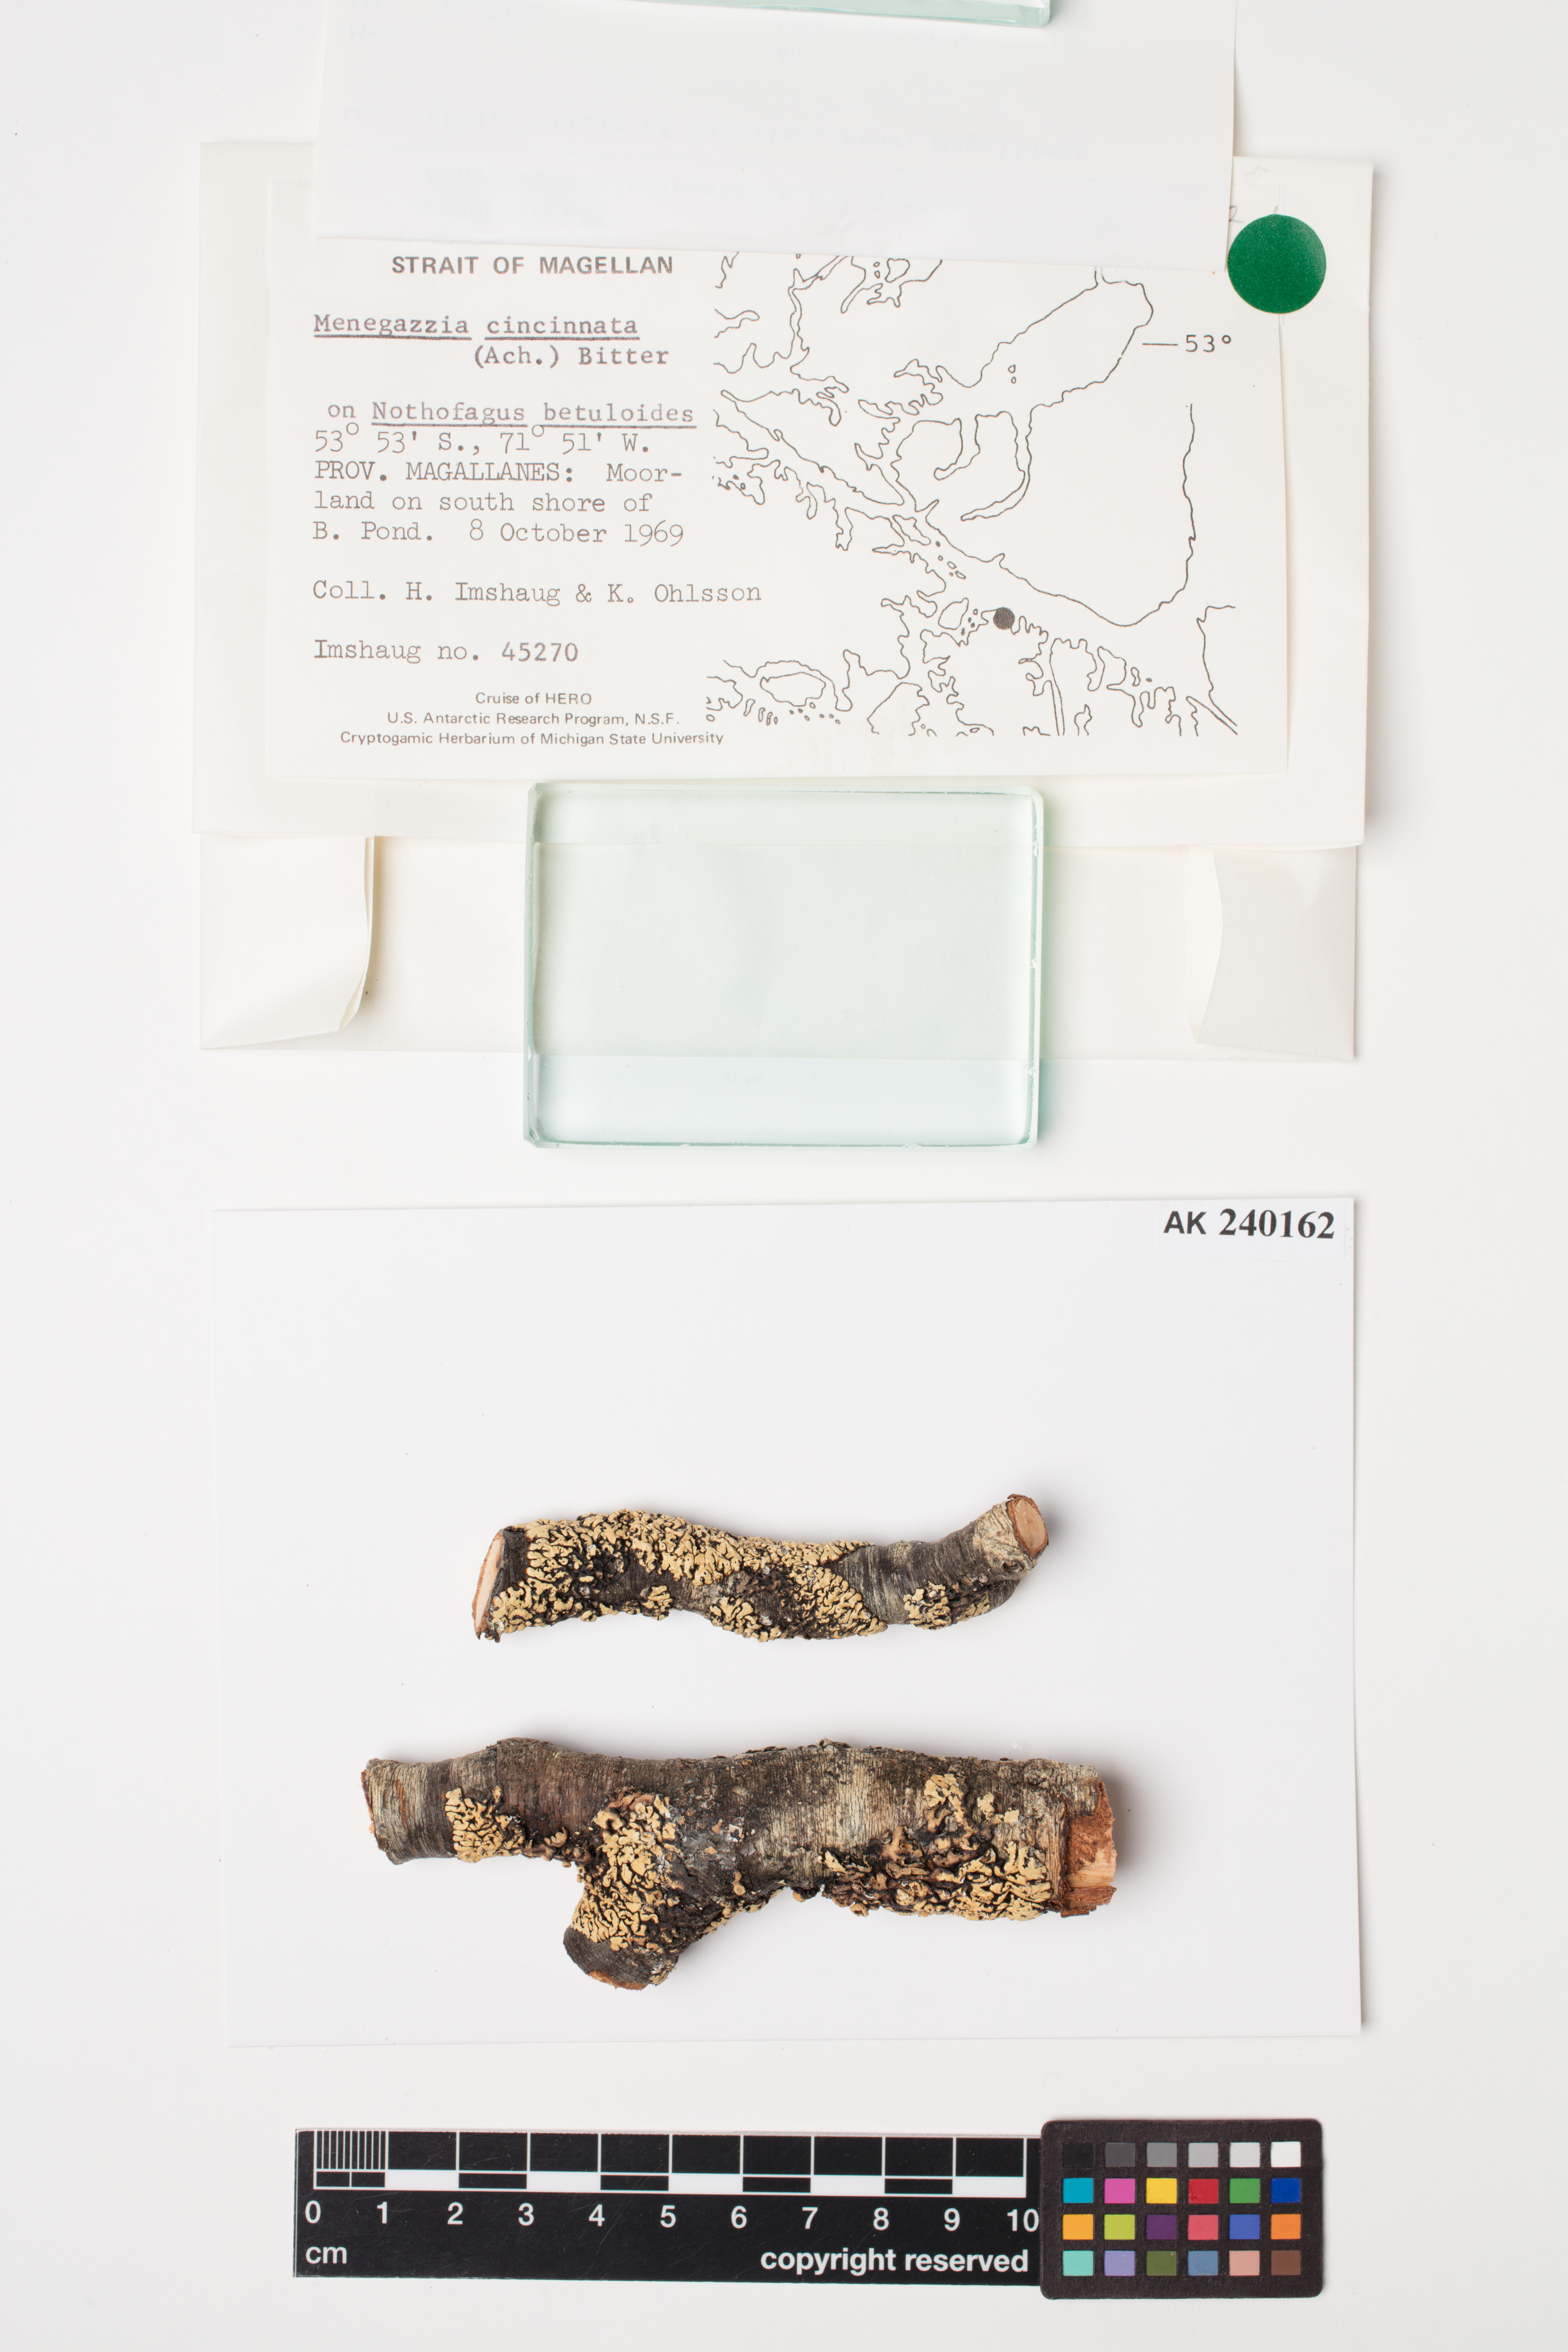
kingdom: Fungi
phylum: Ascomycota
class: Lecanoromycetes
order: Lecanorales
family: Parmeliaceae
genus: Menegazzia
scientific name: Menegazzia cincinnata
